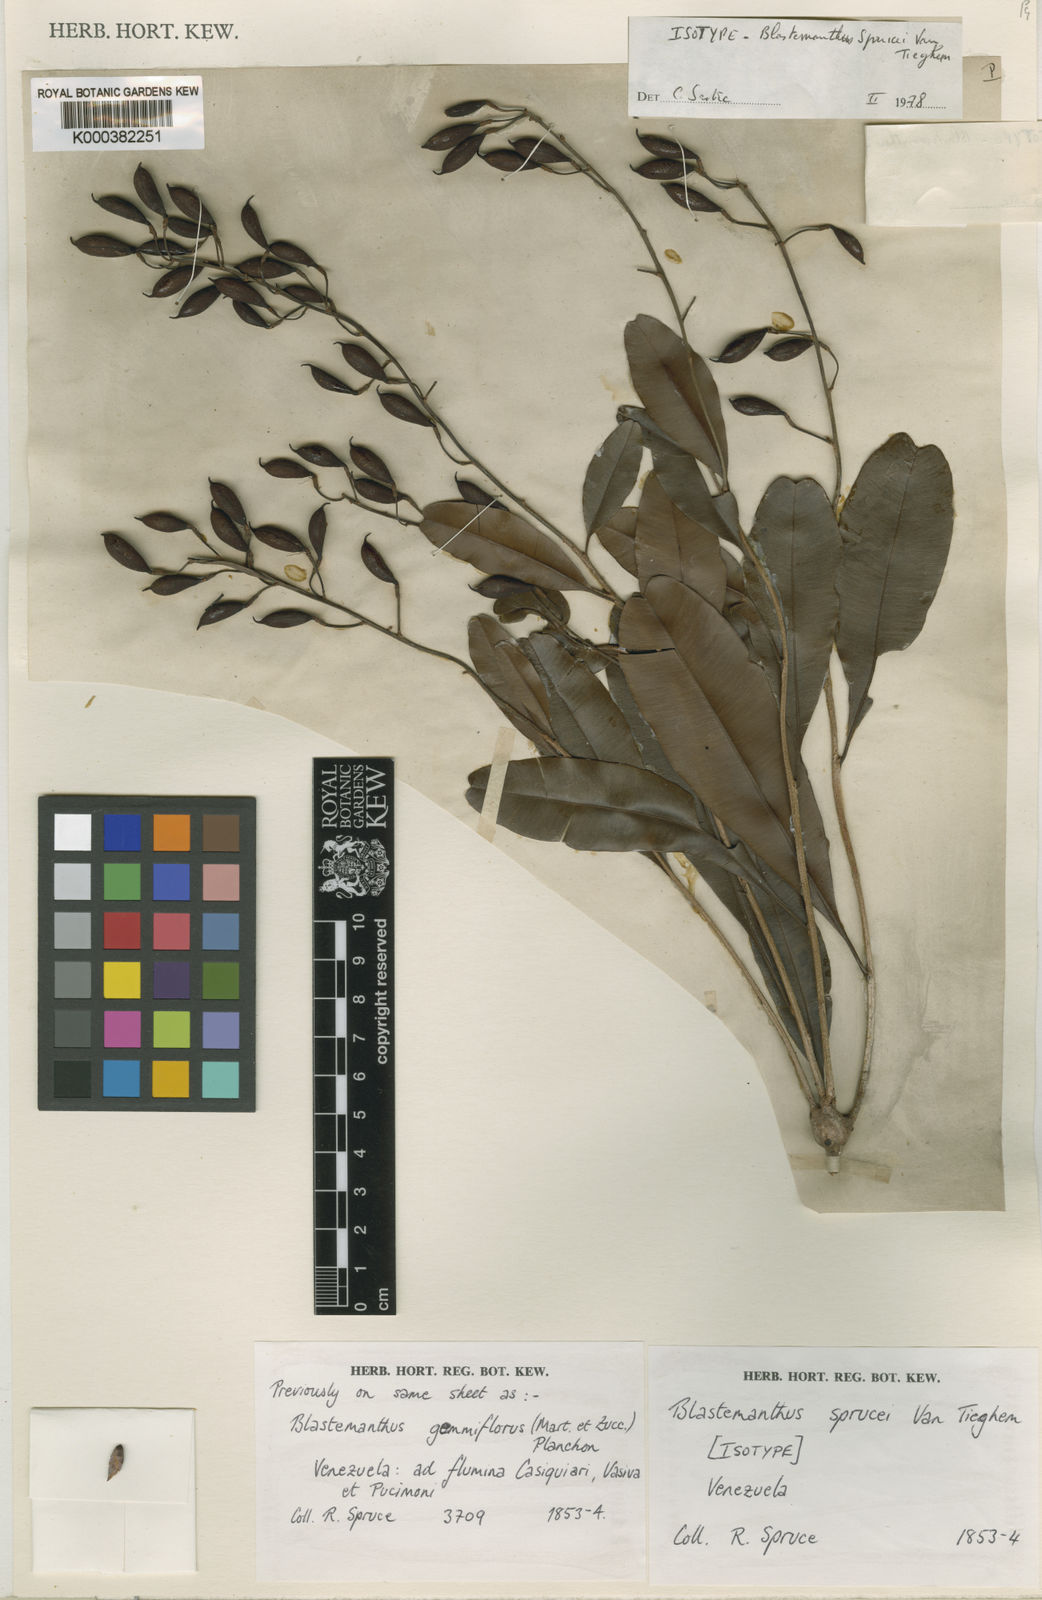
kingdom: Plantae
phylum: Tracheophyta
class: Magnoliopsida
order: Malpighiales
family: Ochnaceae
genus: Blastemanthus
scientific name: Blastemanthus gemmiflorus
